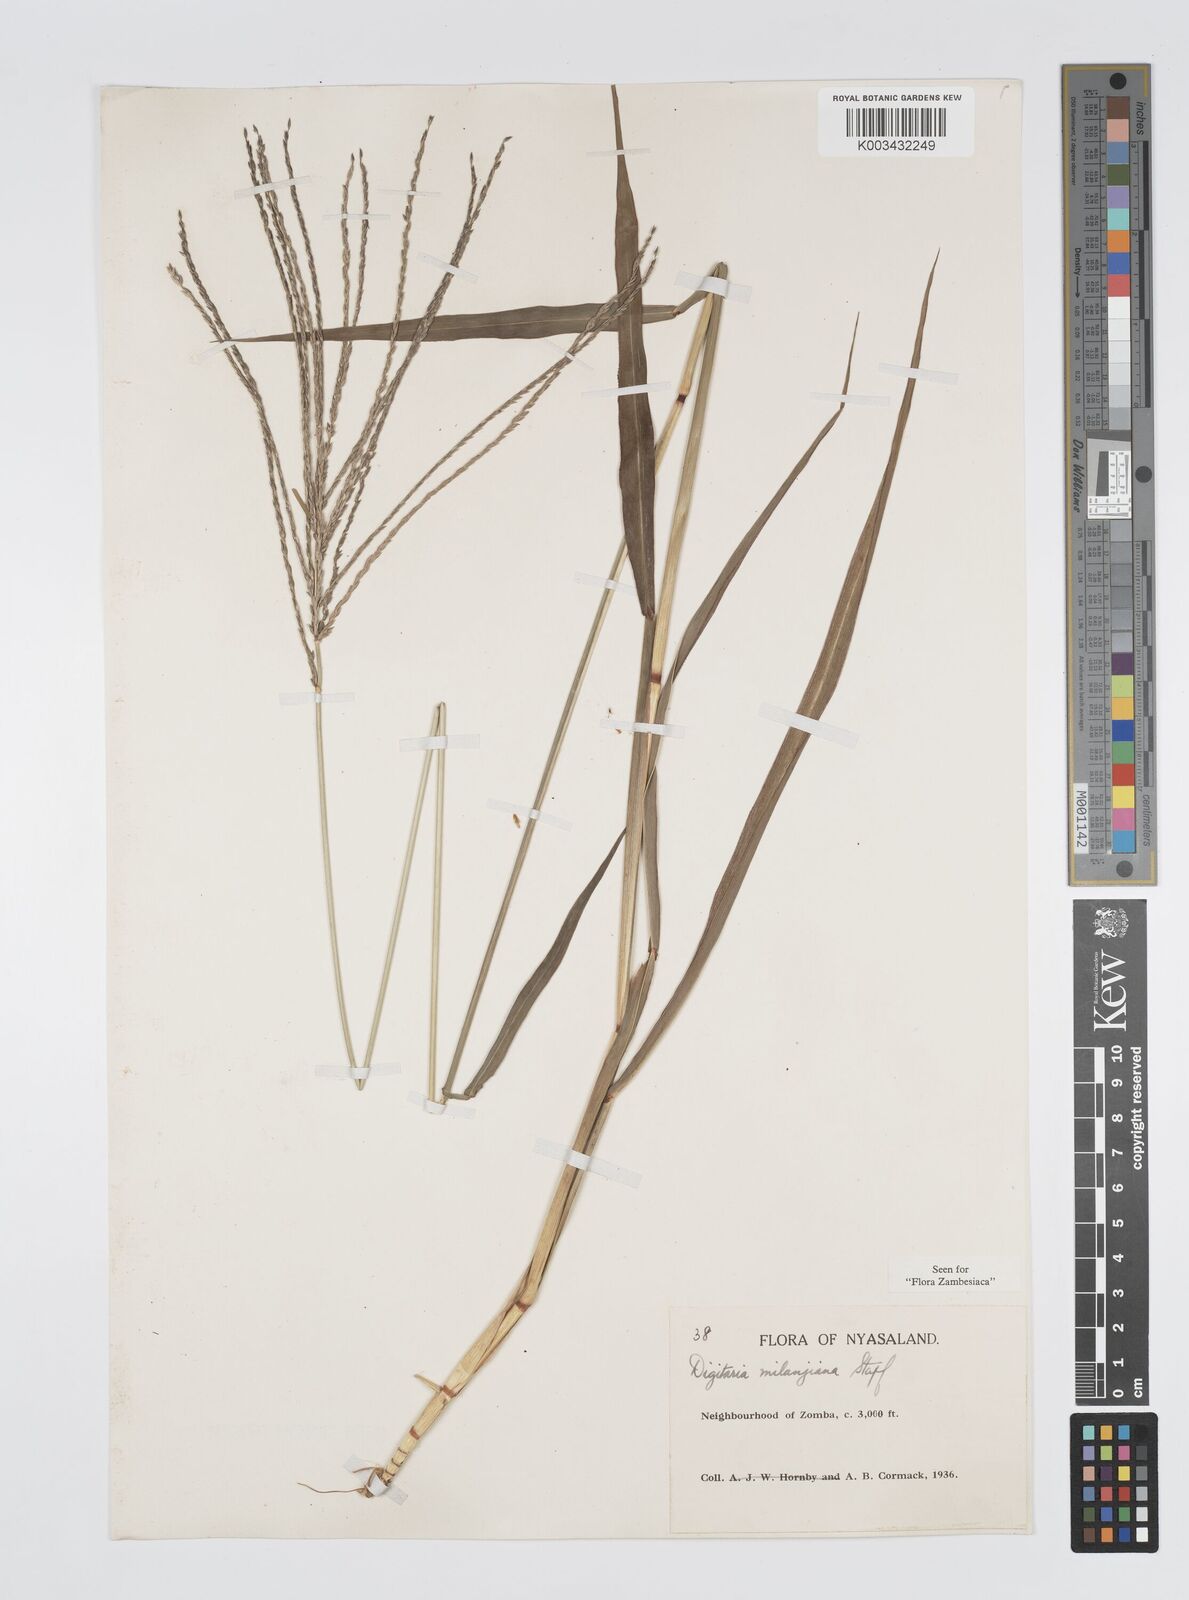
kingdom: Plantae
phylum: Tracheophyta
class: Liliopsida
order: Poales
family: Poaceae
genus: Digitaria
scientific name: Digitaria milanjiana
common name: Madagascar crabgrass
